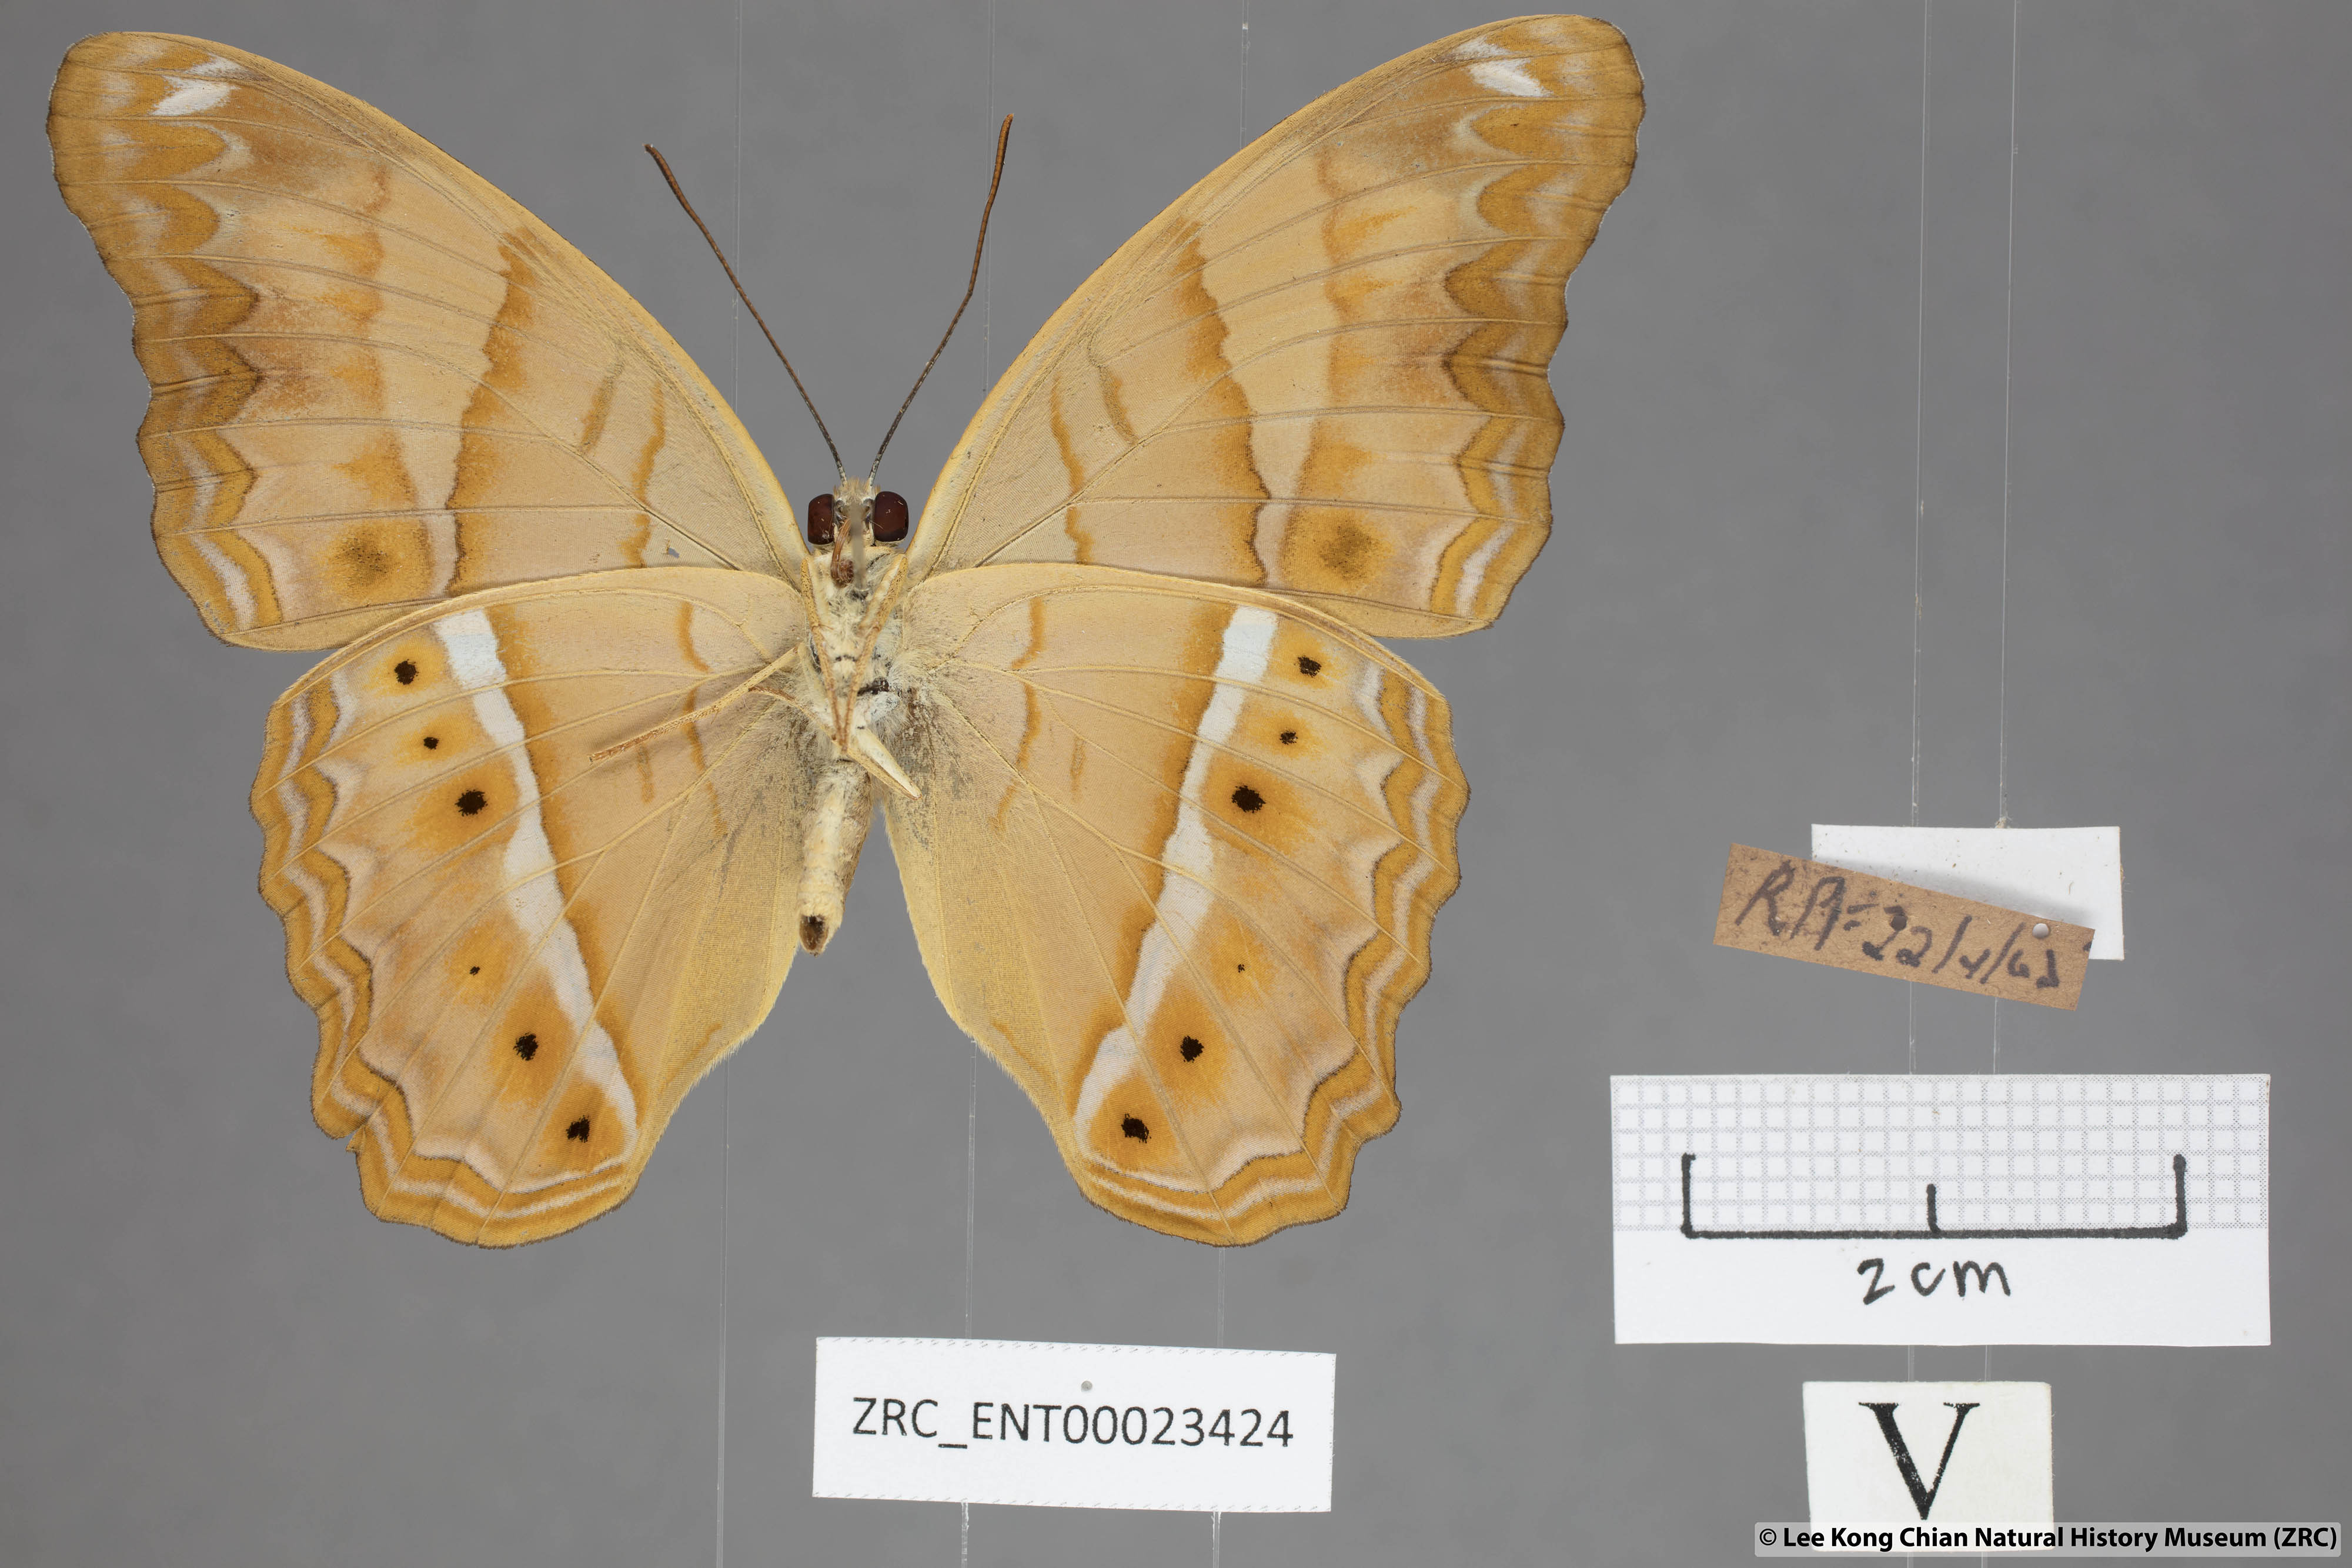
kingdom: Animalia
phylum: Arthropoda
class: Insecta
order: Lepidoptera
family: Nymphalidae
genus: Cirrochroa
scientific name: Cirrochroa emalea
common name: Malay yeoman
